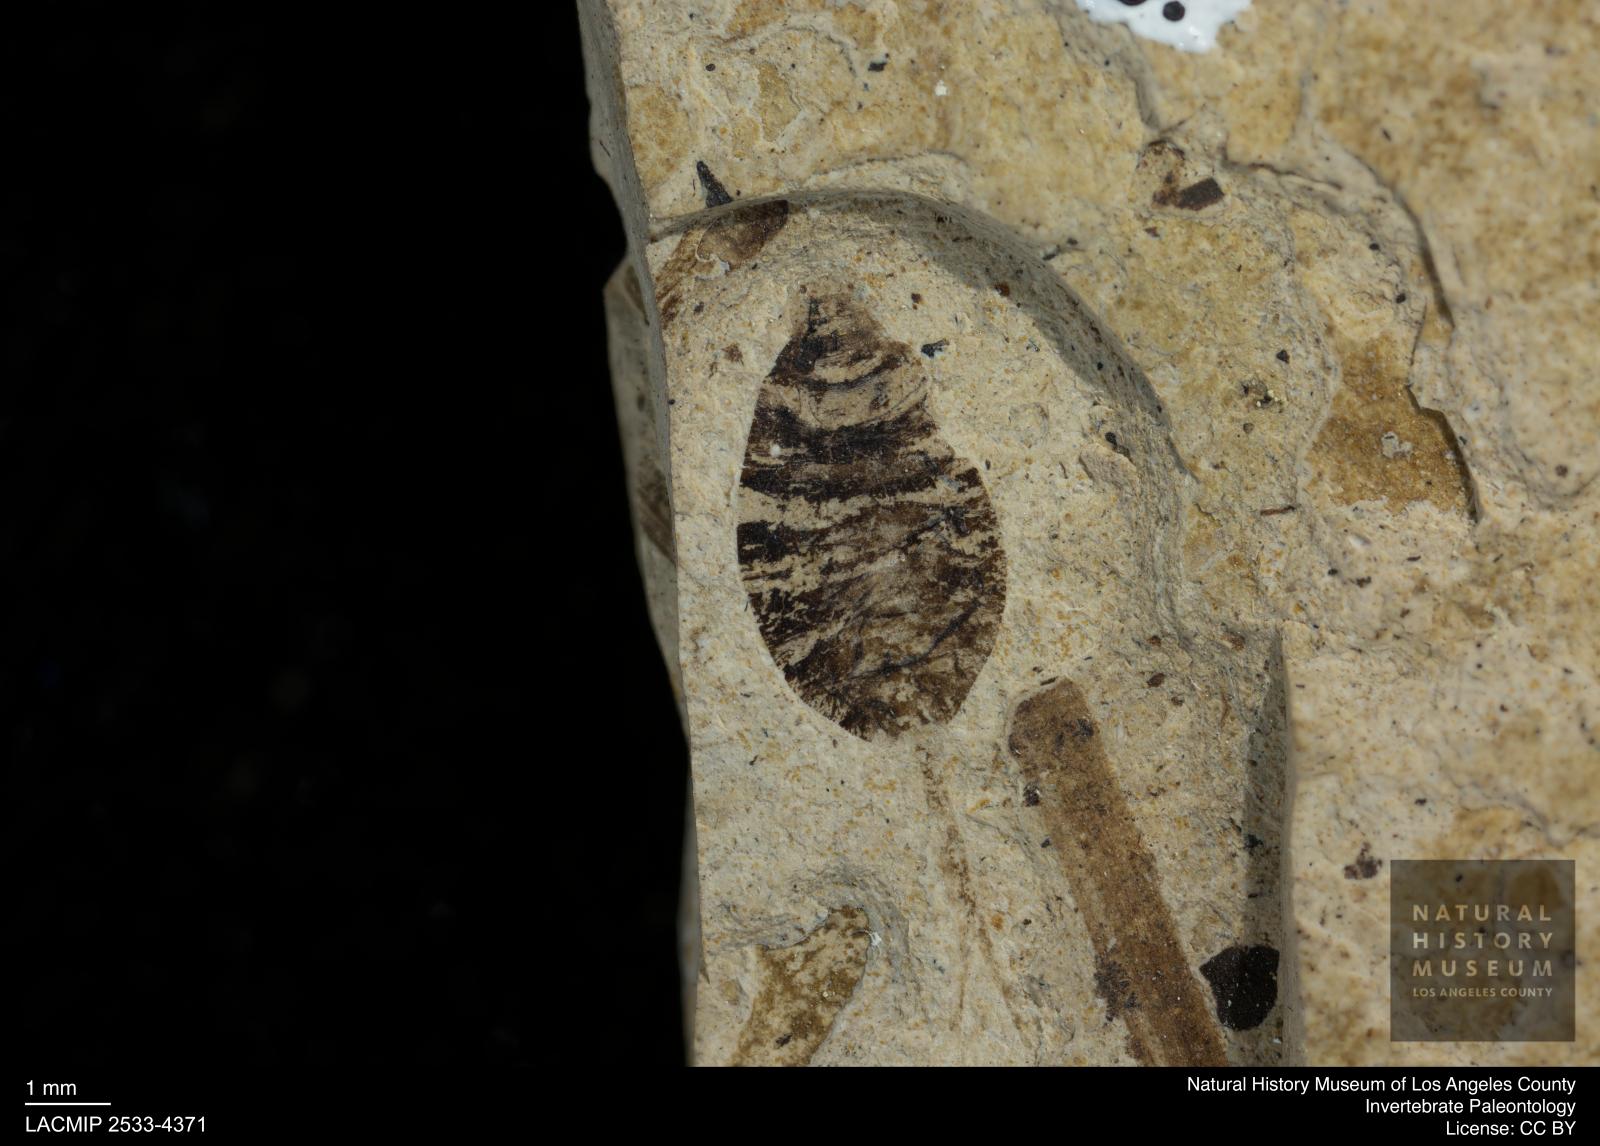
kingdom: Animalia
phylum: Arthropoda
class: Insecta
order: Diptera
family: Syrphidae
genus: Eristalis
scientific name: Eristalis
